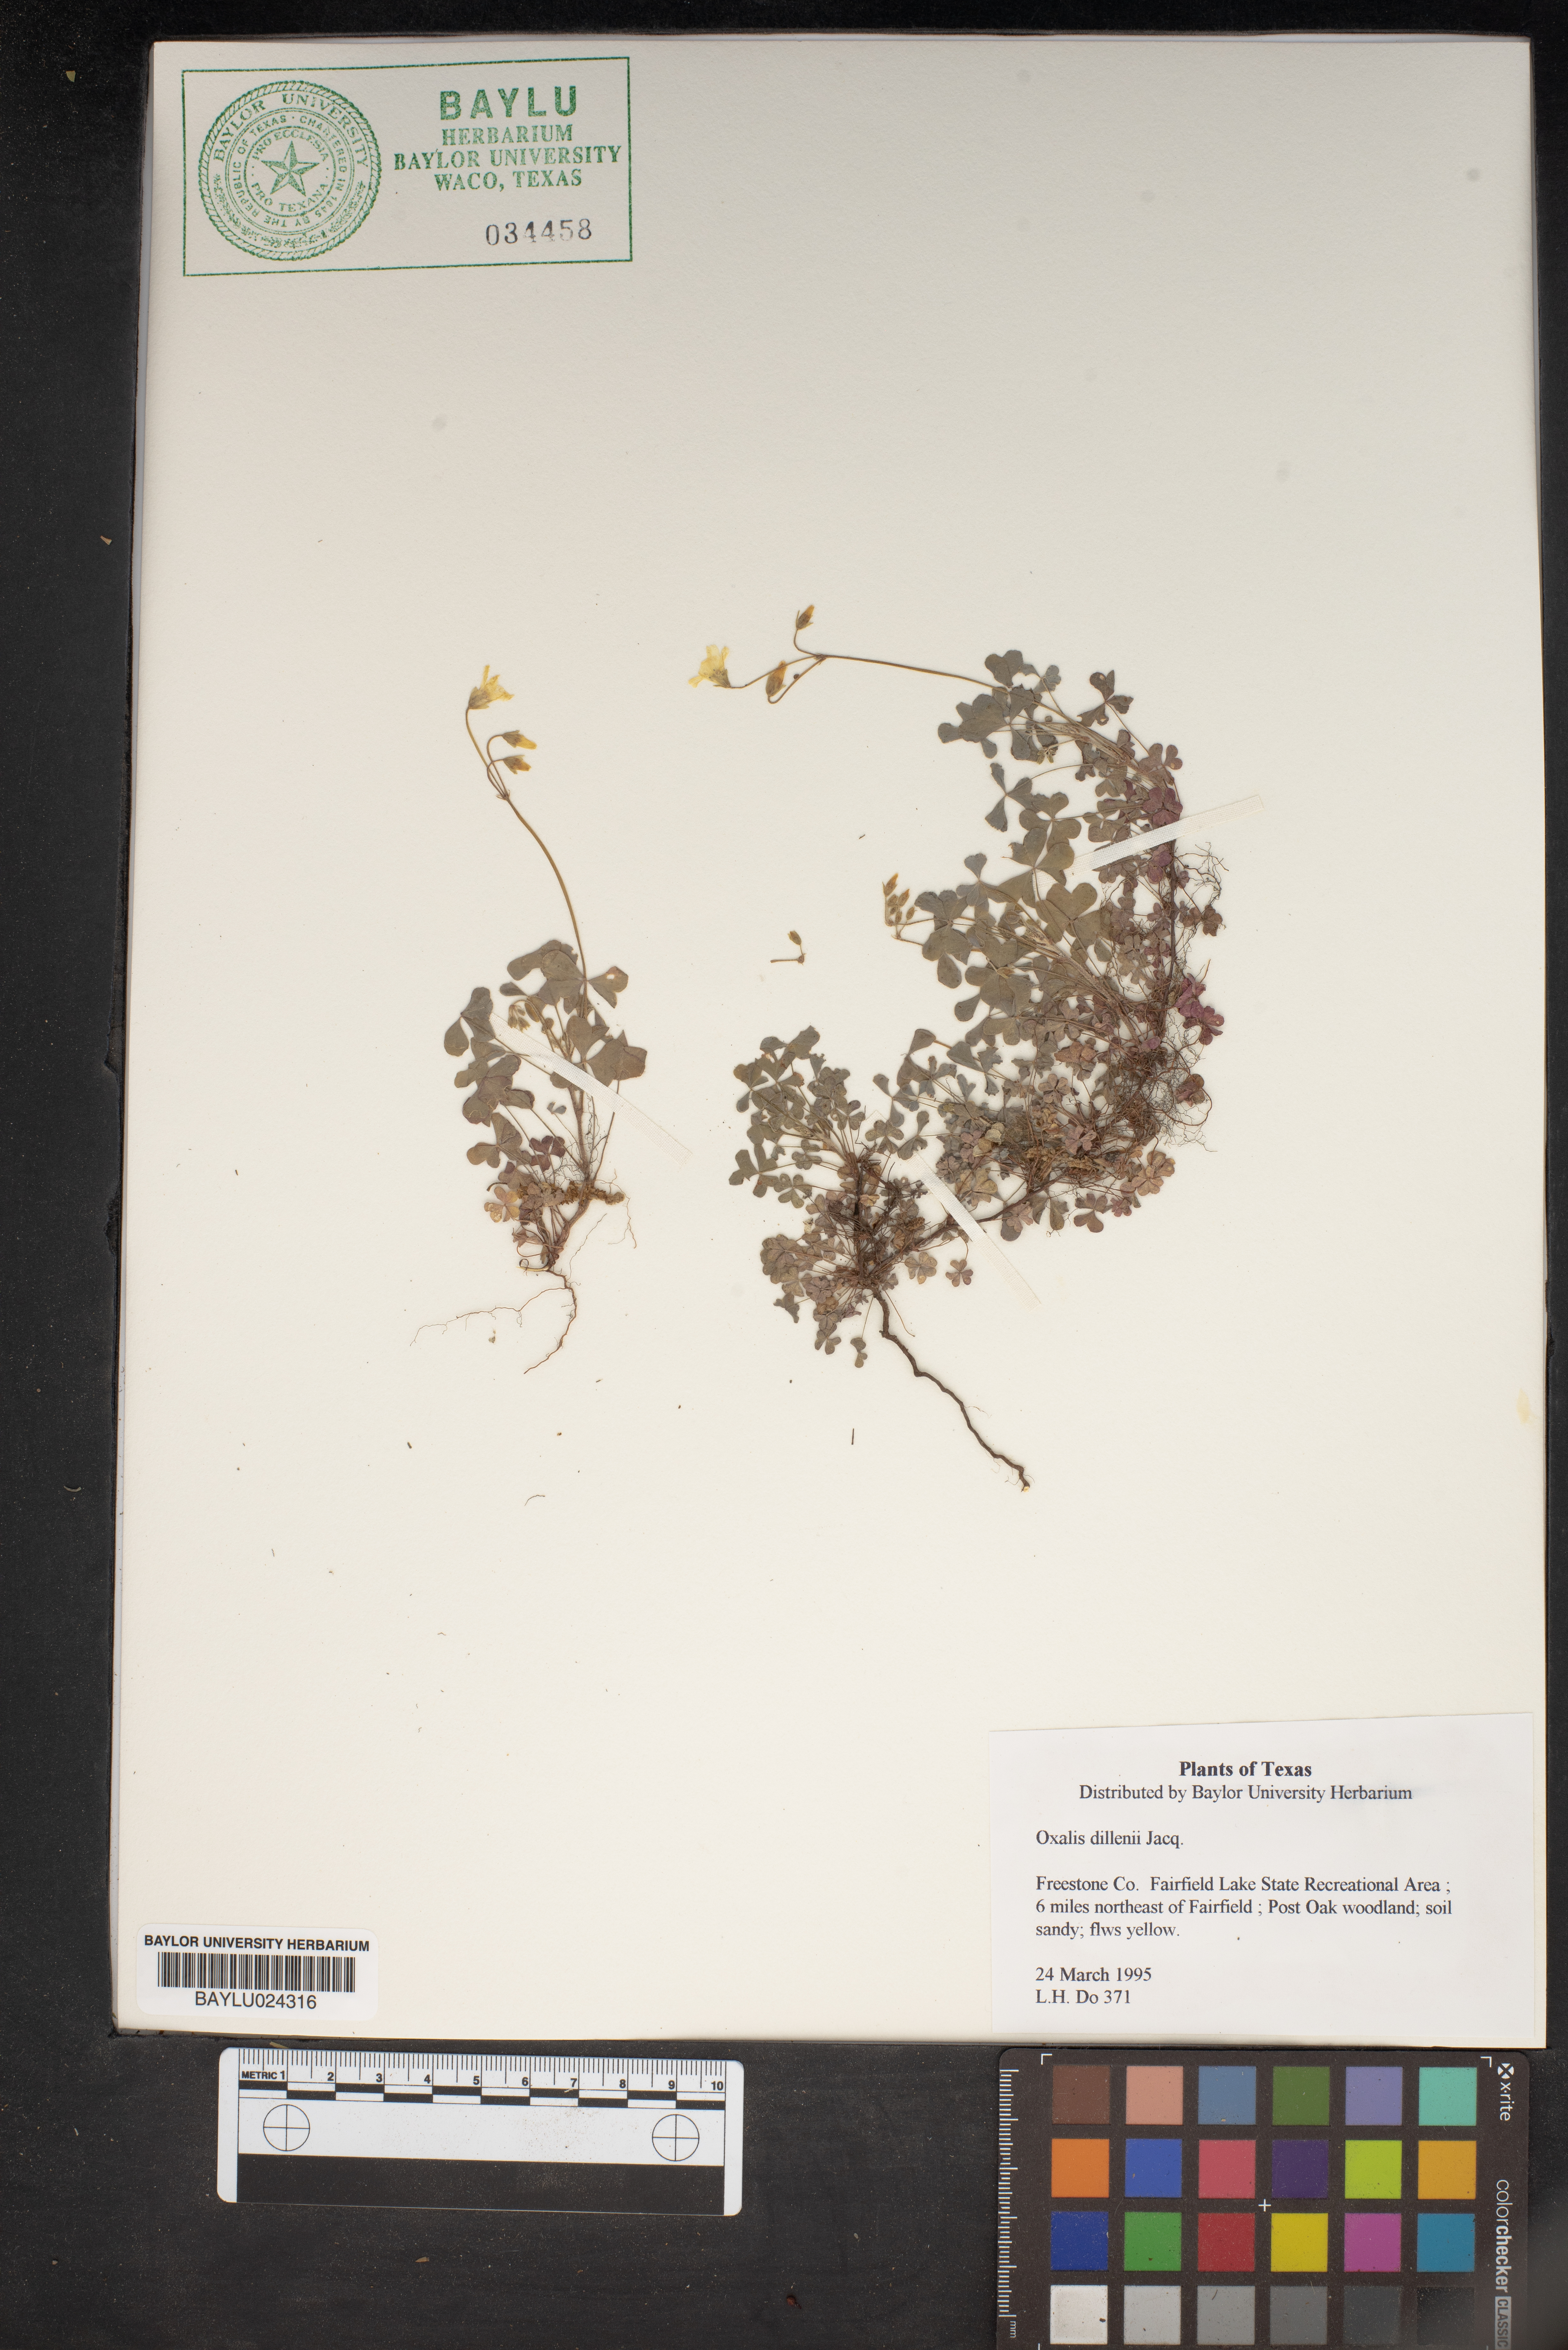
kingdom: Plantae
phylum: Tracheophyta
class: Magnoliopsida
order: Oxalidales
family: Oxalidaceae
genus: Oxalis
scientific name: Oxalis dillenii
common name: Sussex yellow-sorrel
